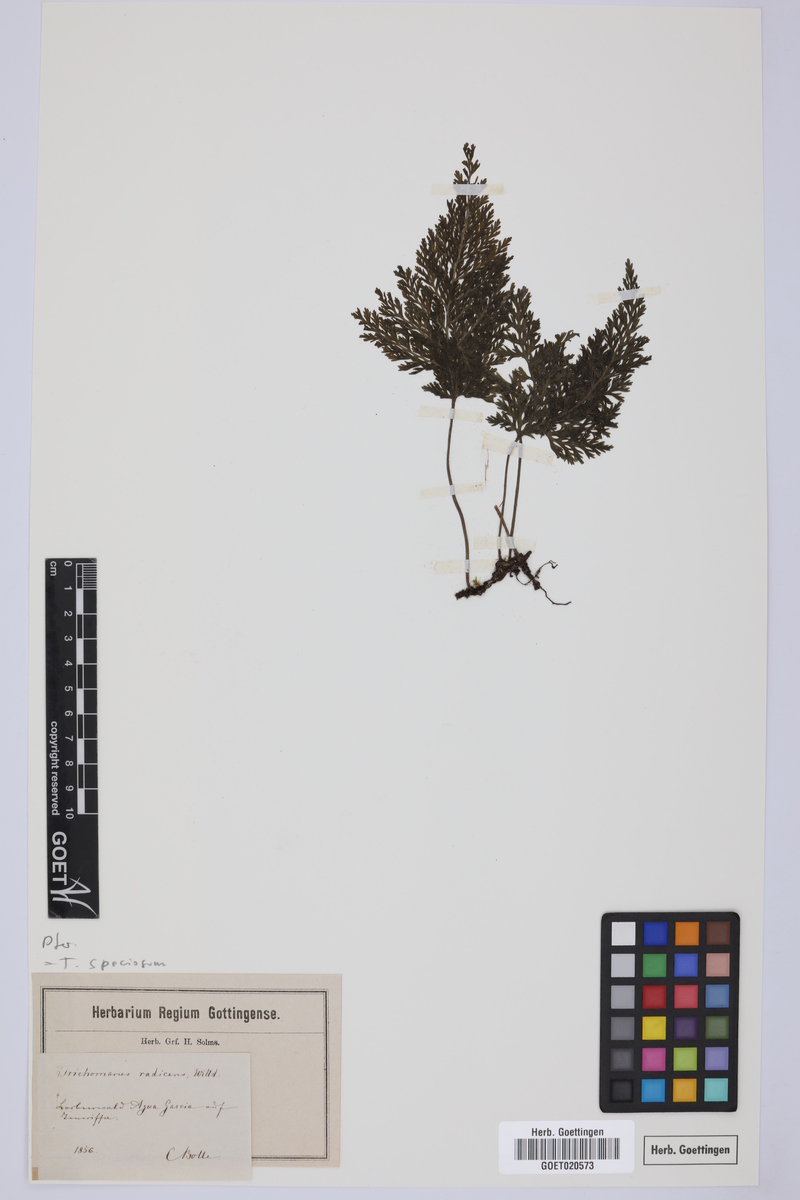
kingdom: Plantae
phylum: Tracheophyta
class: Polypodiopsida
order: Hymenophyllales
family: Hymenophyllaceae
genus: Vandenboschia
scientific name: Vandenboschia speciosa
